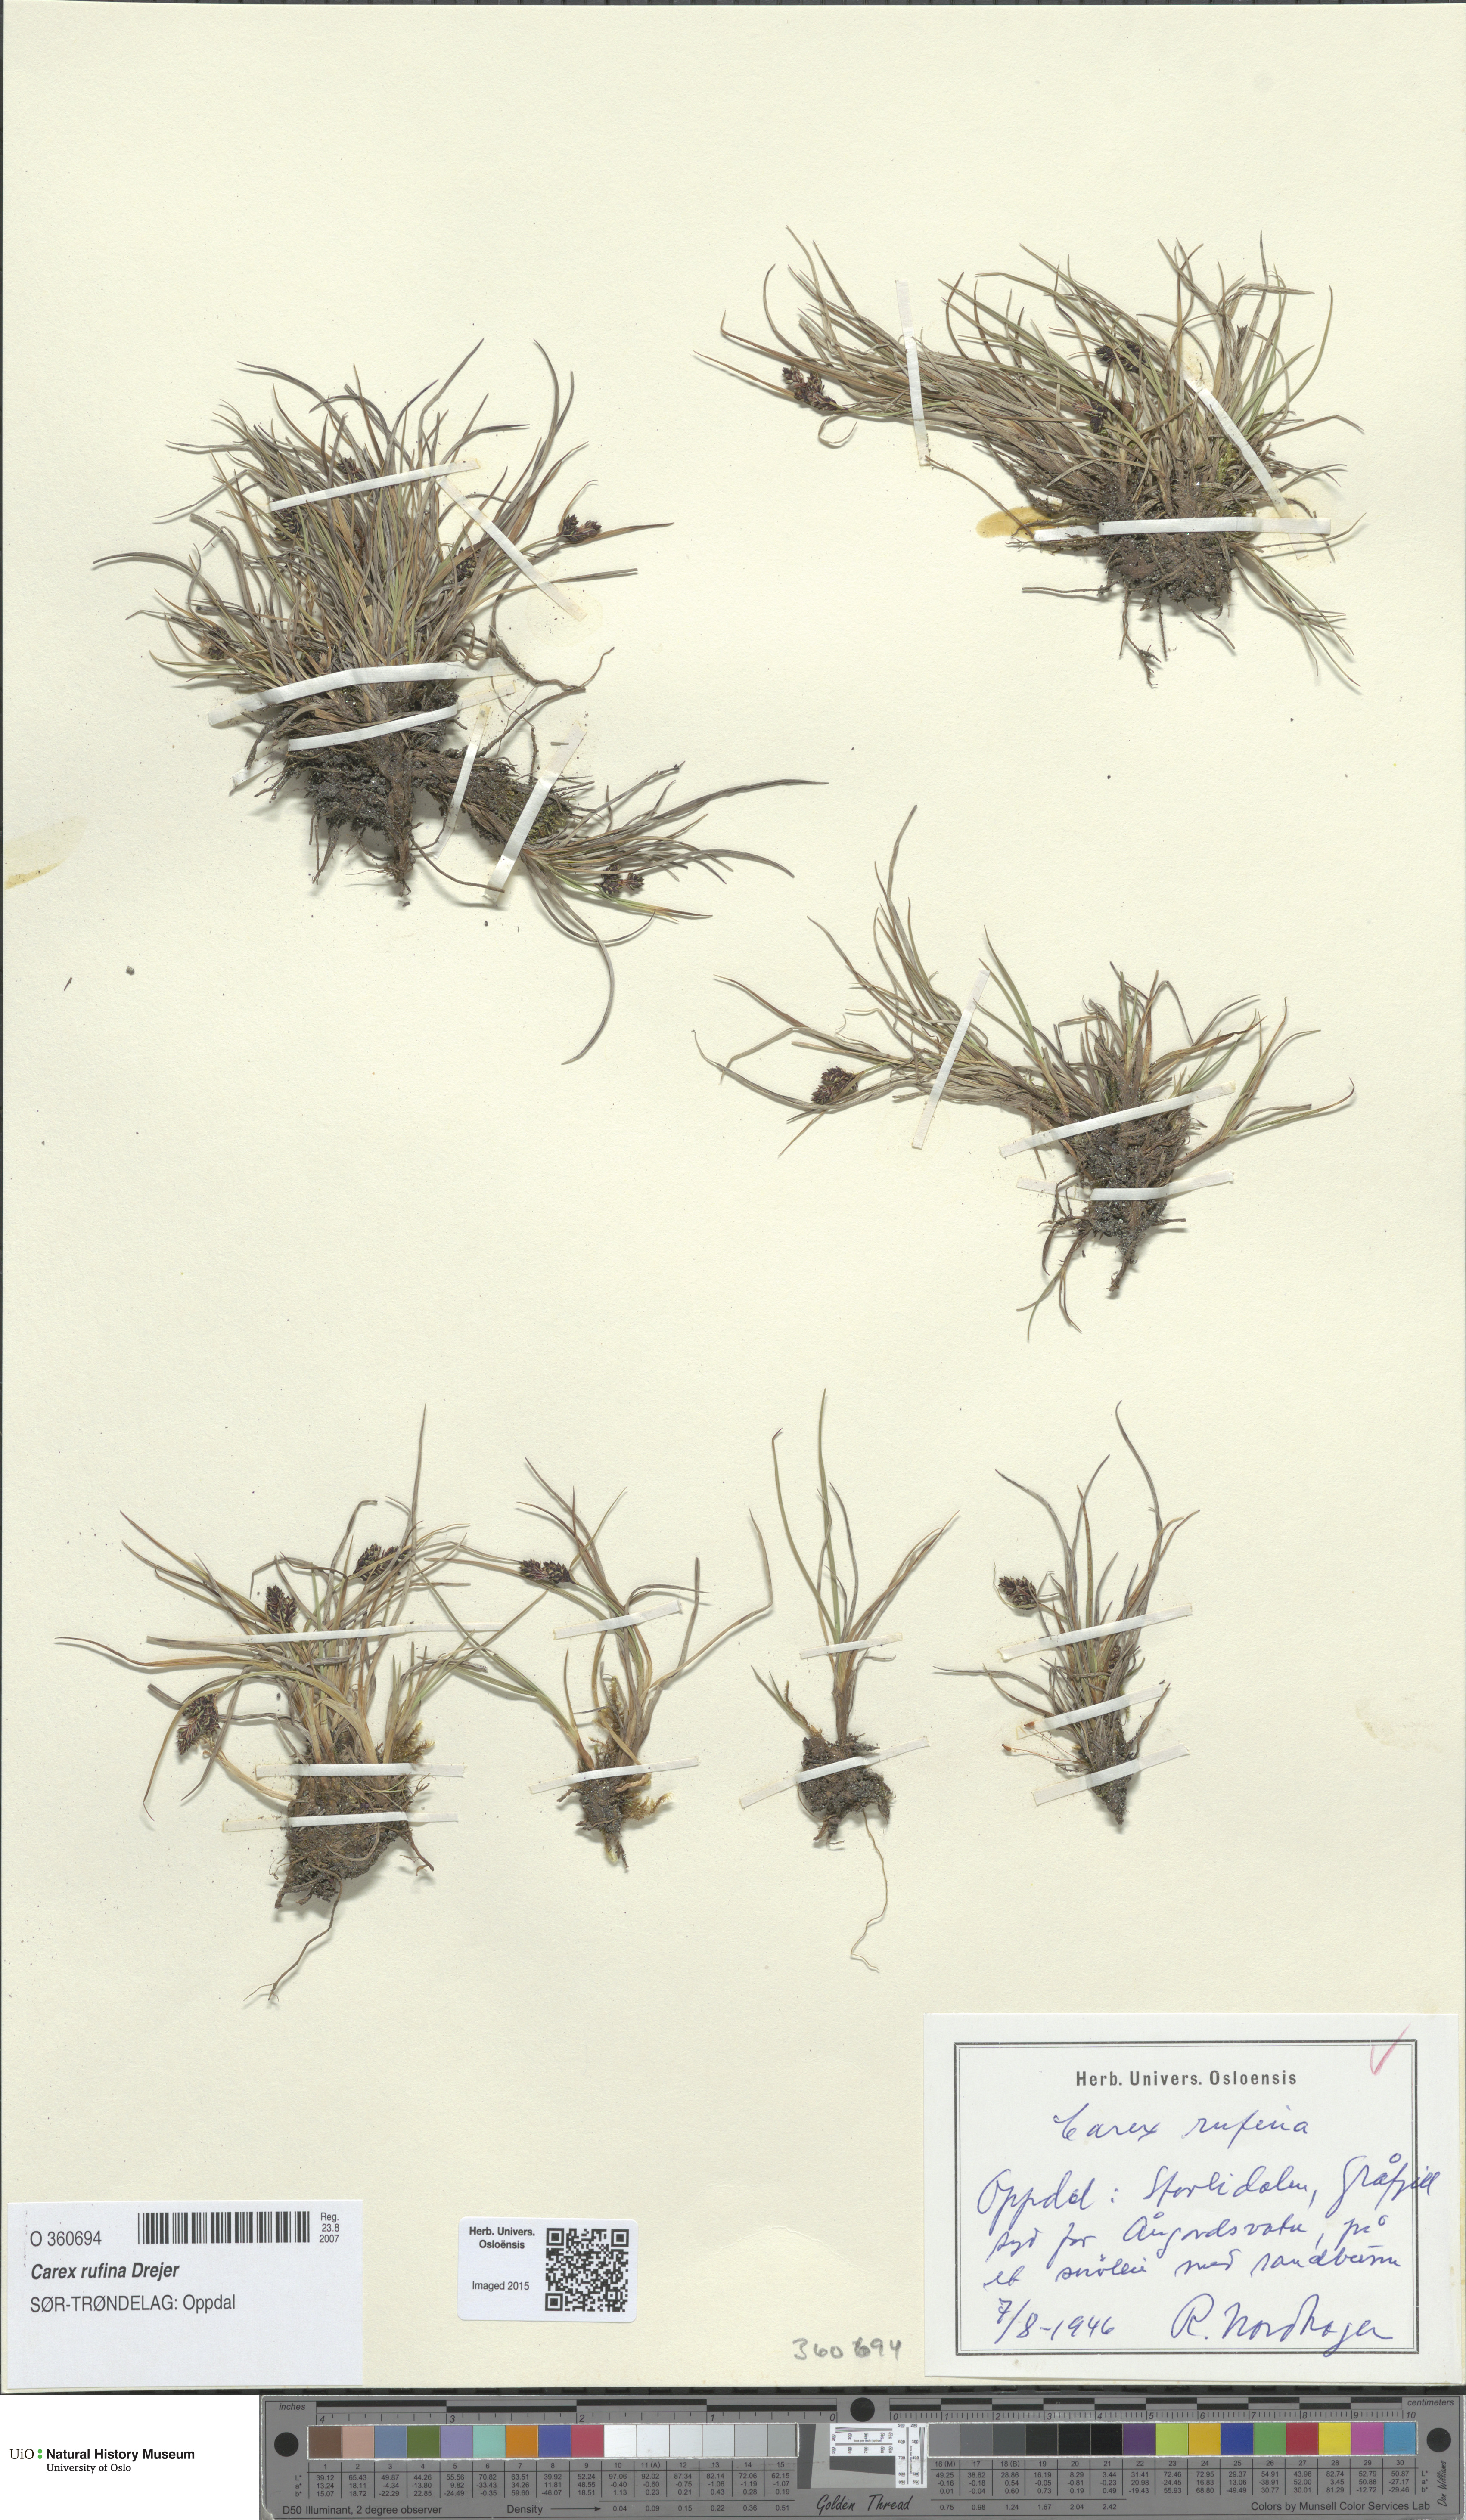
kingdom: Plantae
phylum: Tracheophyta
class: Liliopsida
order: Poales
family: Cyperaceae
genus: Carex
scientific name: Carex rufina
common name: Reddish sedge
